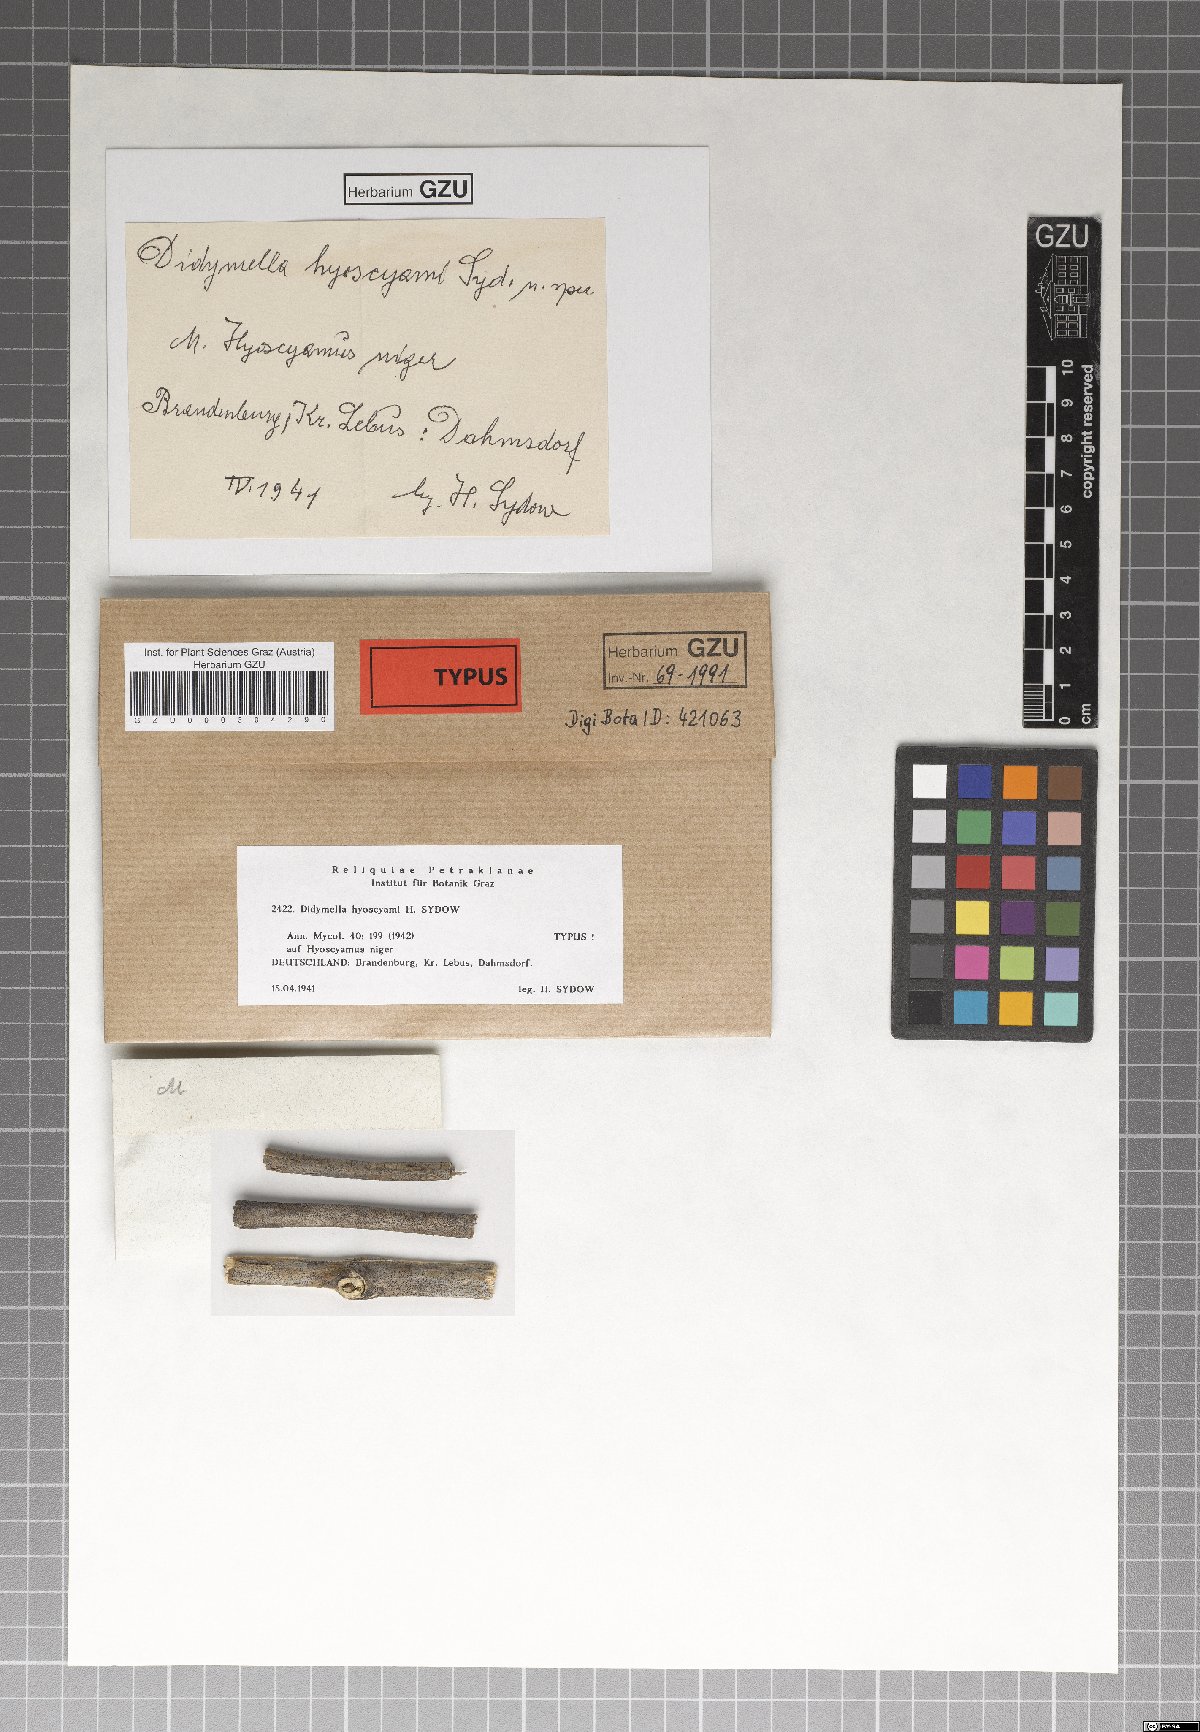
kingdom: Fungi
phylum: Ascomycota
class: Dothideomycetes
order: Pleosporales
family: Didymellaceae
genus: Didymella
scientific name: Didymella hyoscyami
